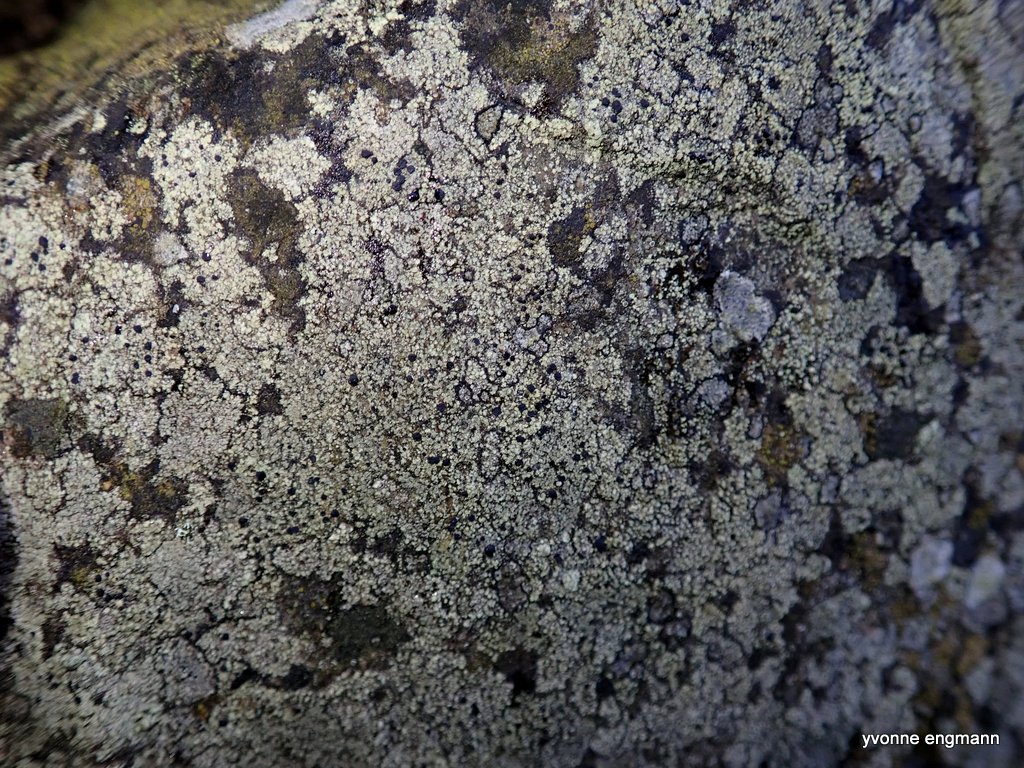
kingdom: Fungi
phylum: Ascomycota
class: Lecanoromycetes
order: Lecanorales
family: Lecanoraceae
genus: Lecidella
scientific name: Lecidella scabra
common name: skurvet skivelav
